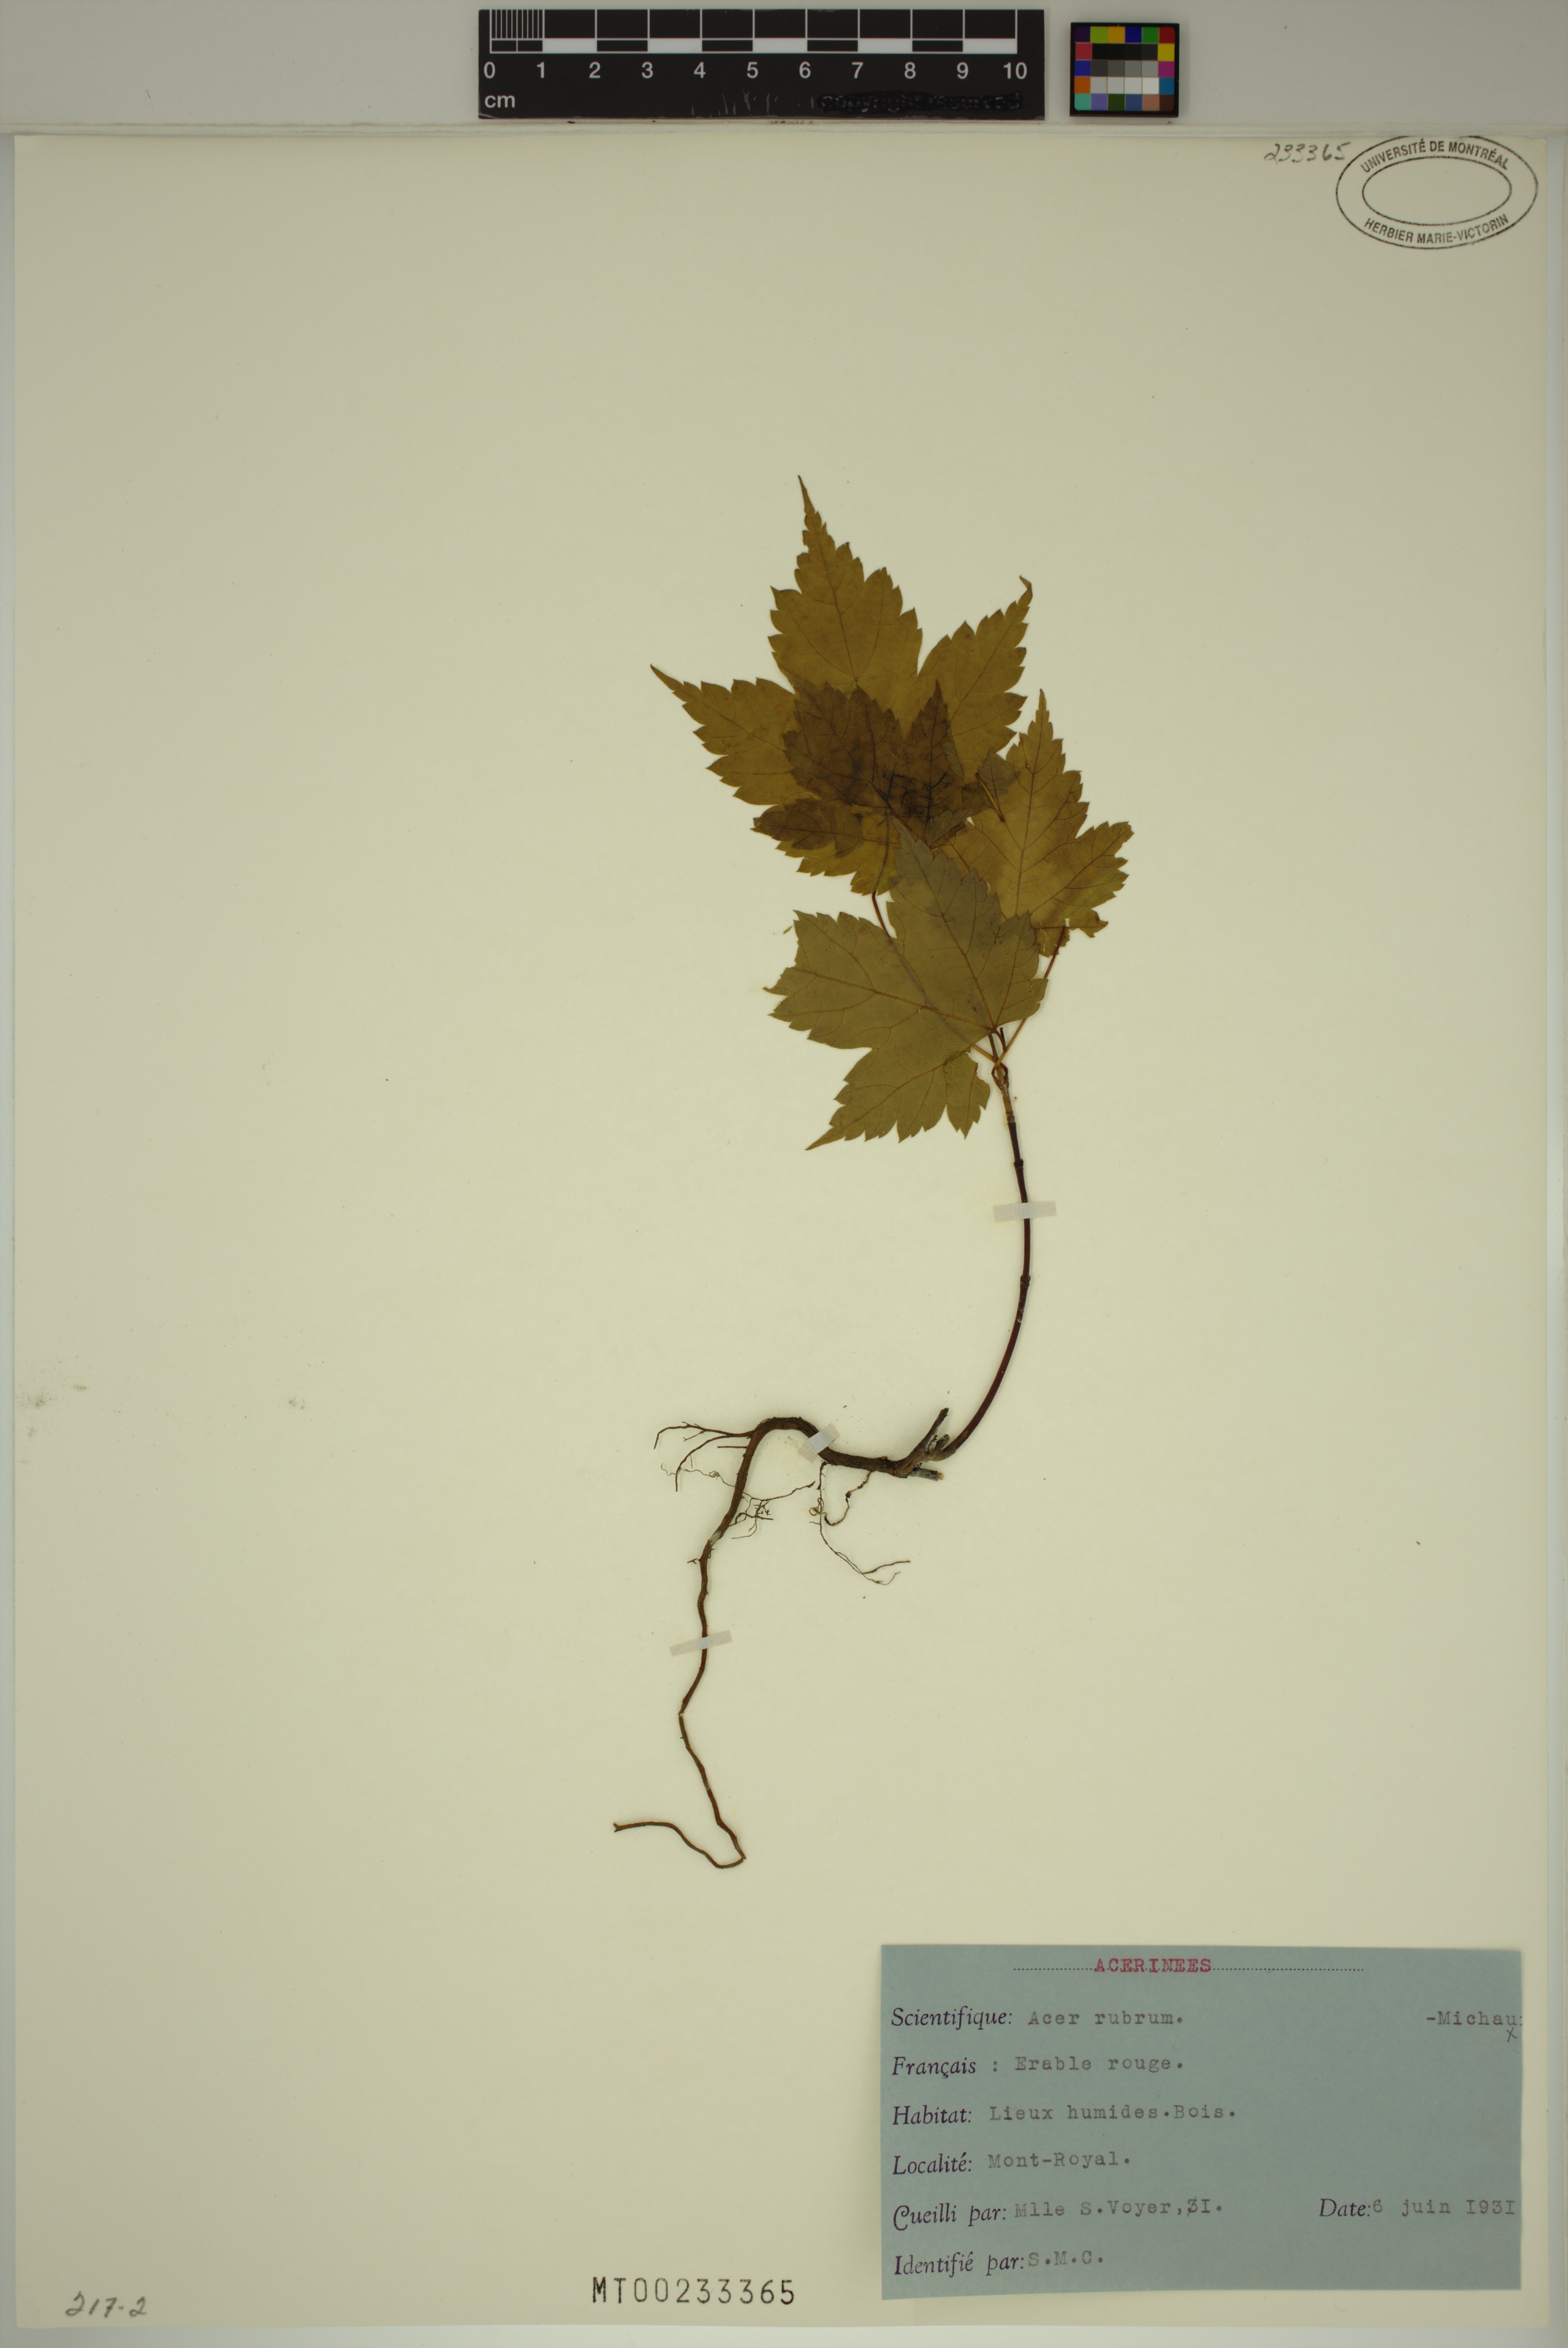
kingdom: Plantae
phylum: Tracheophyta
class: Magnoliopsida
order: Sapindales
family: Sapindaceae
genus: Acer
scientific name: Acer rubrum
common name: Red maple
